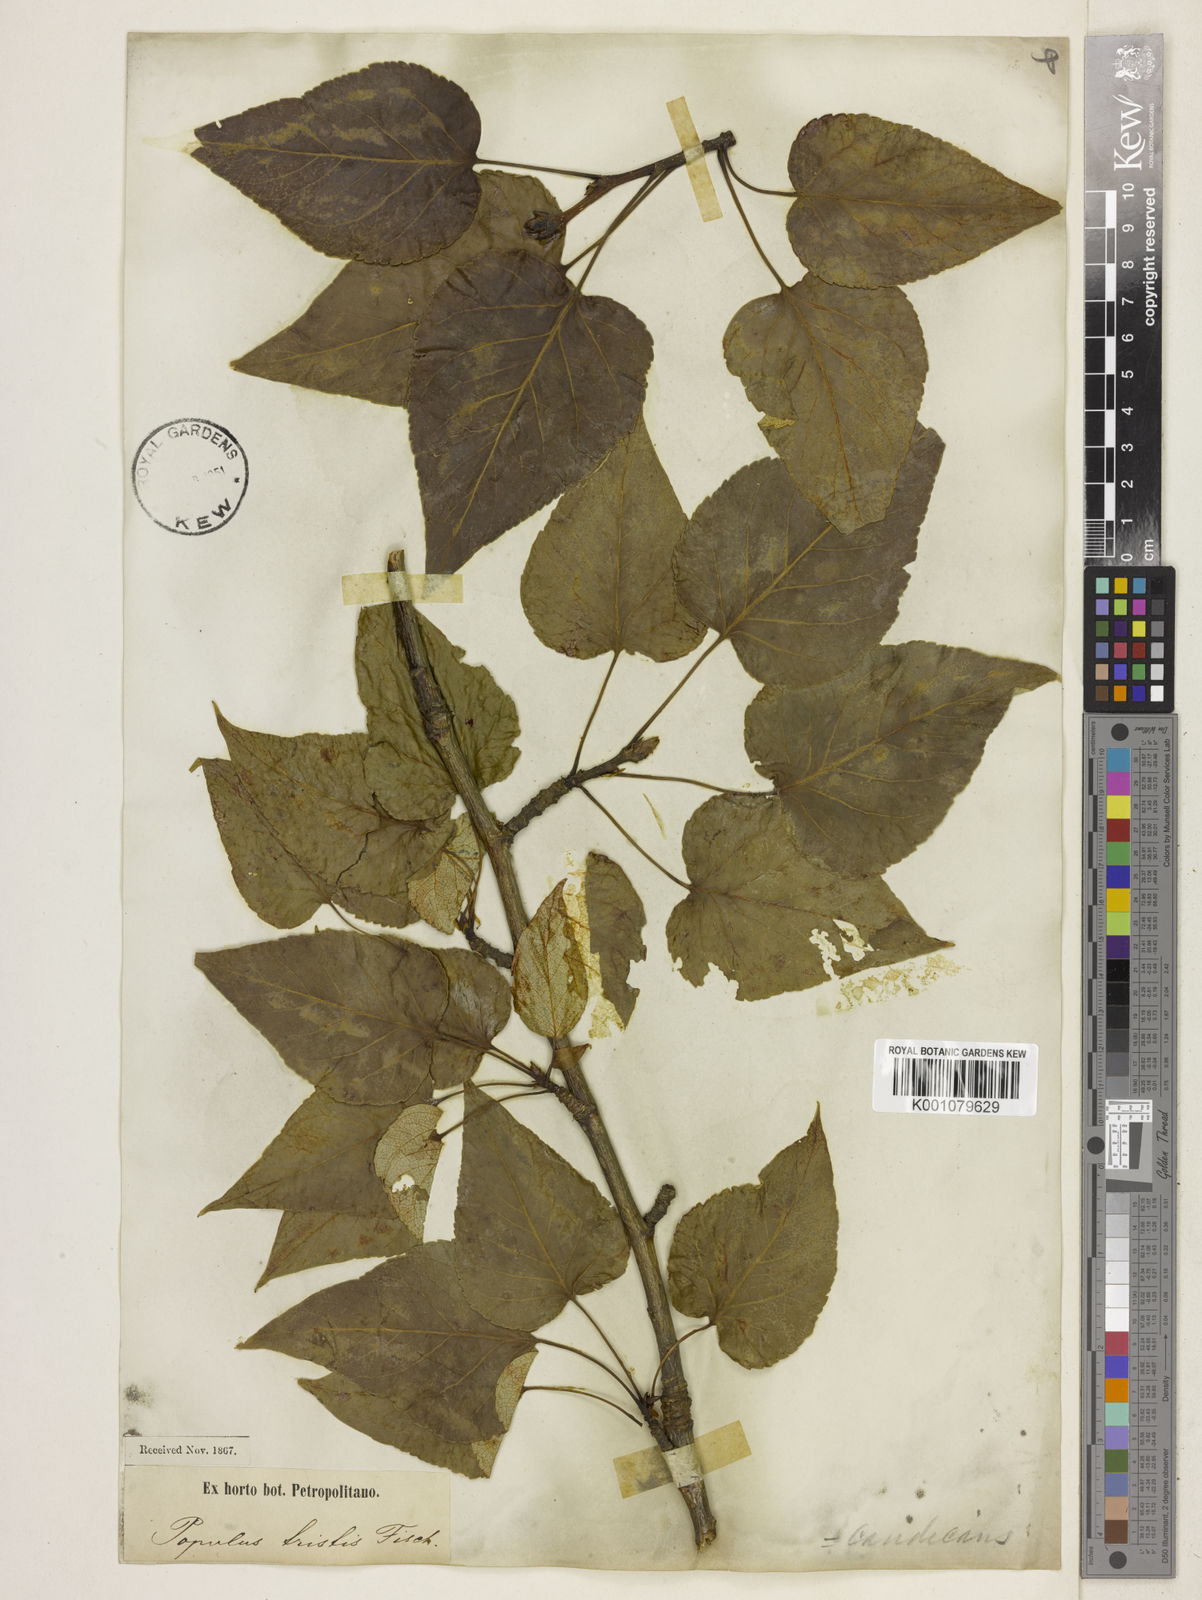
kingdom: Plantae
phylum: Tracheophyta
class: Magnoliopsida
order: Malpighiales
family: Salicaceae
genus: Populus
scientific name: Populus trichocarpa
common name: Black cottonwood
